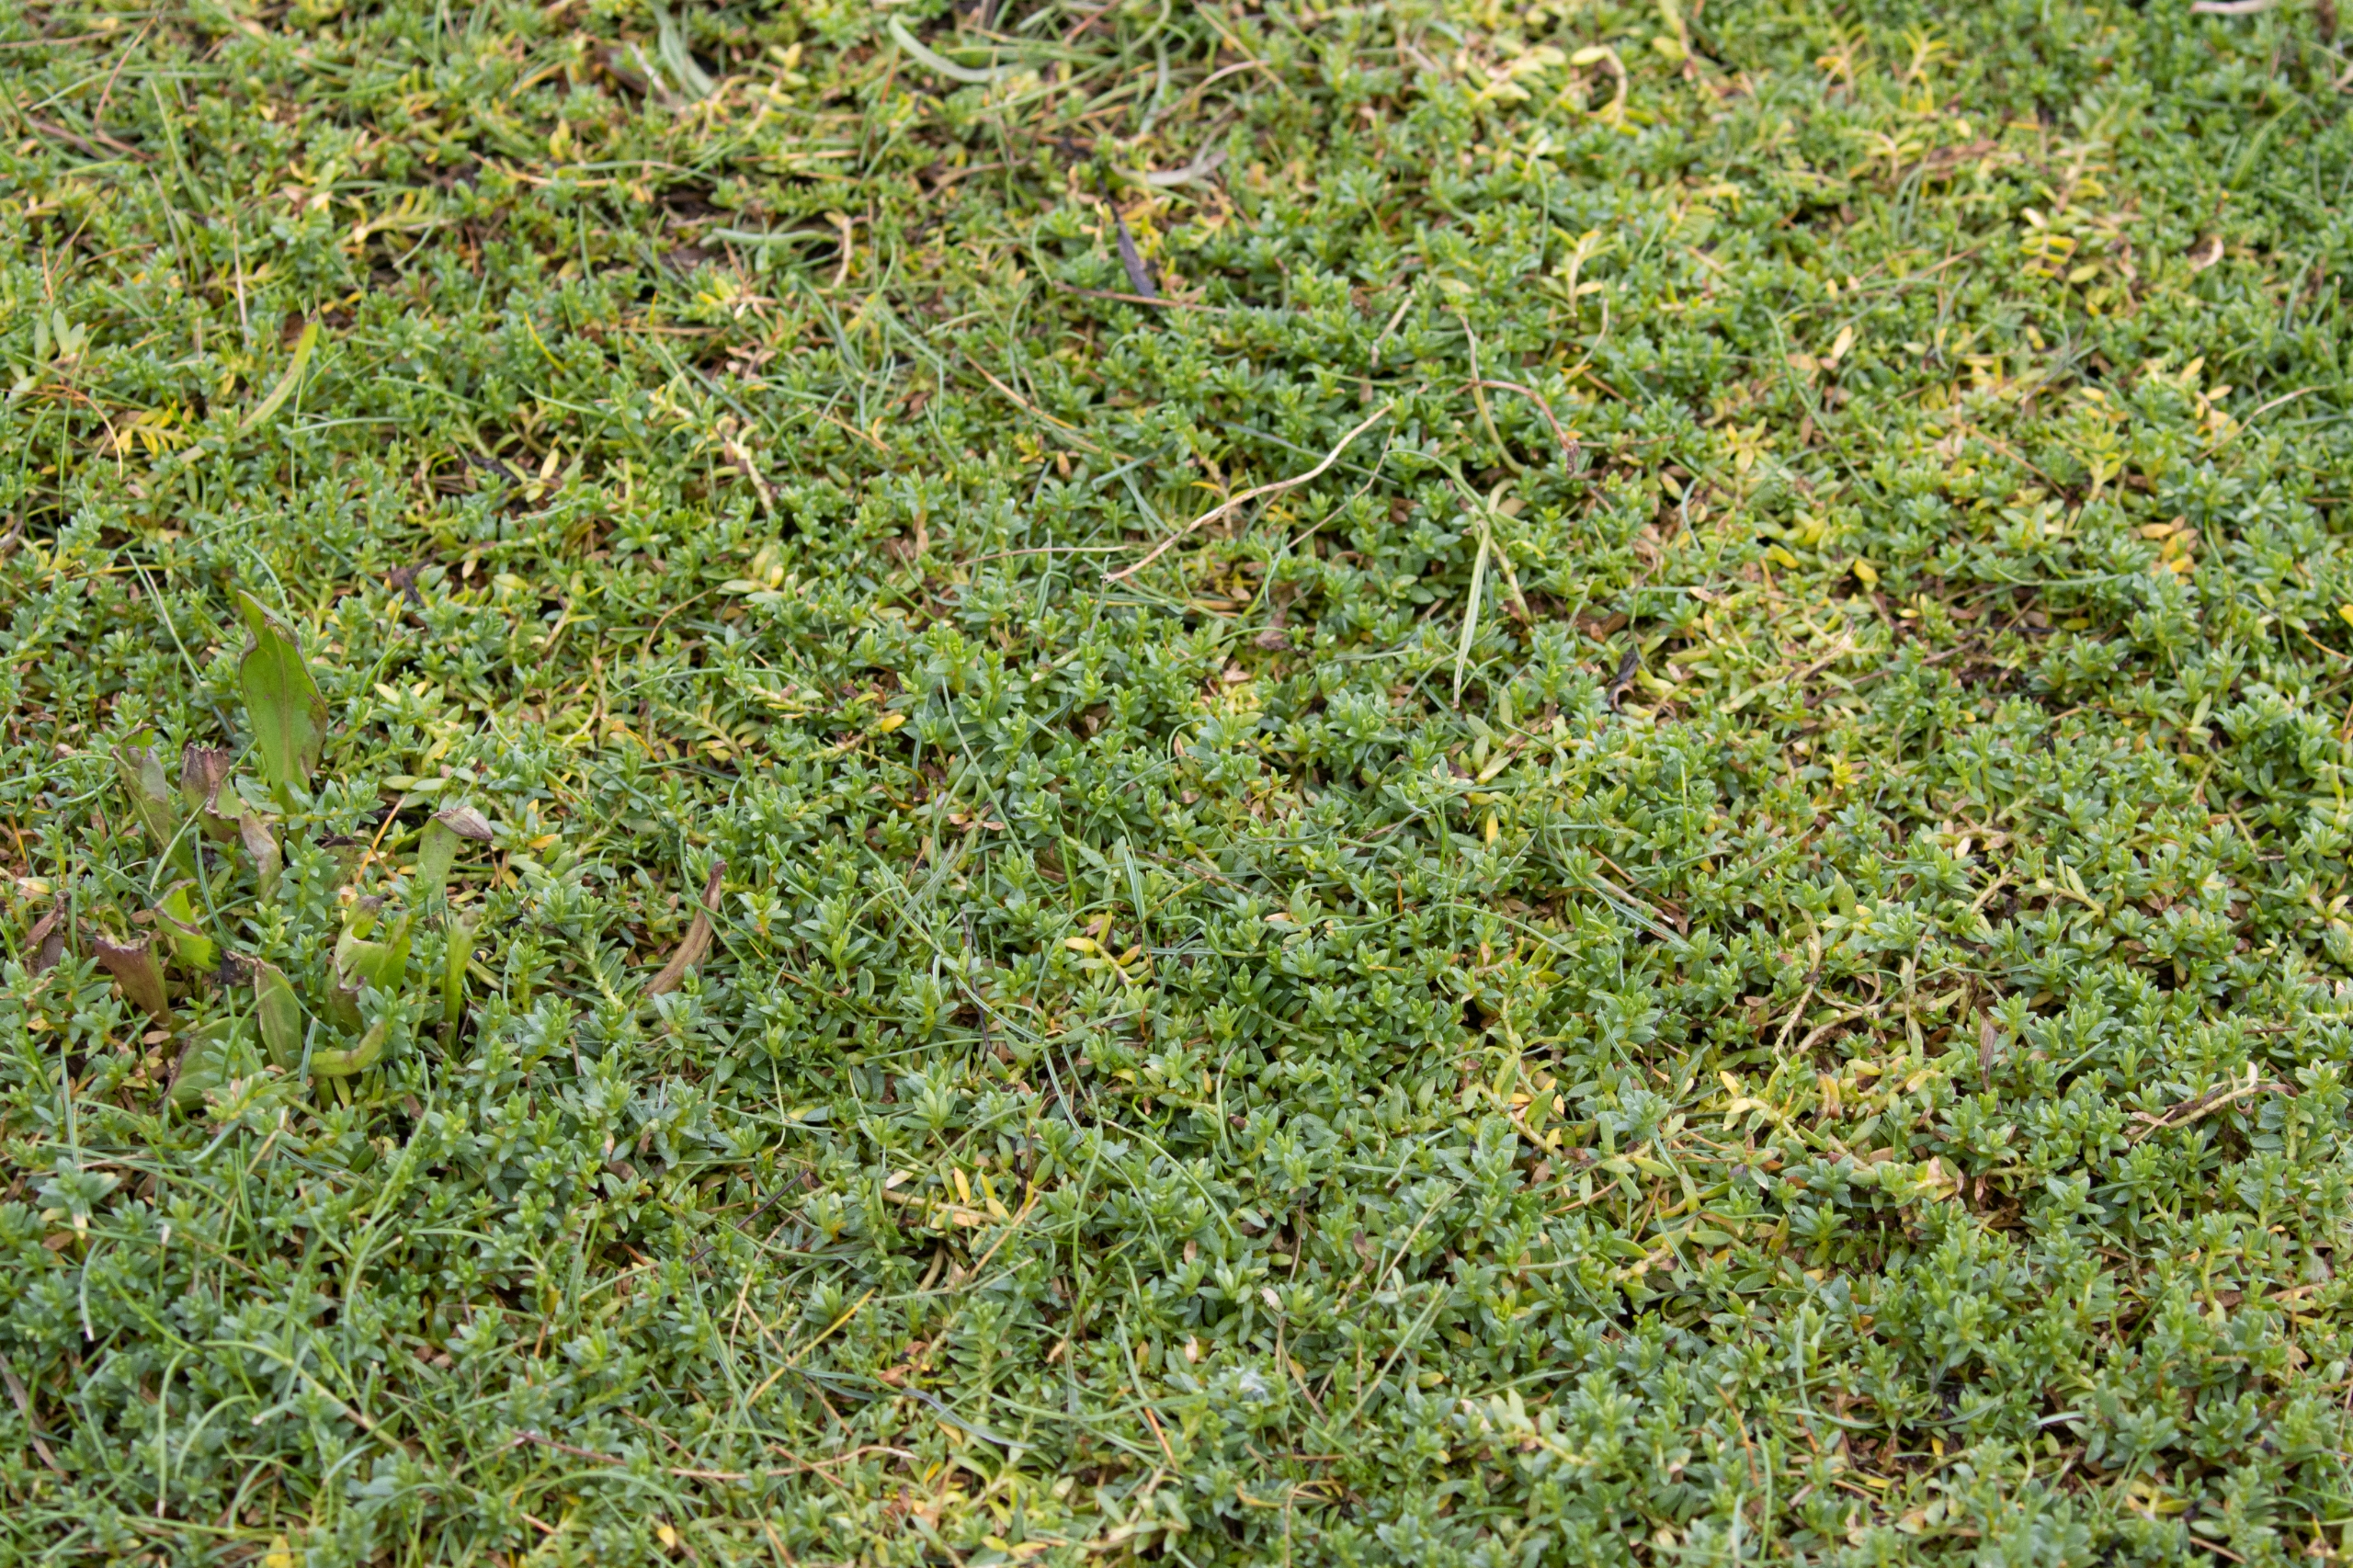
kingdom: Plantae
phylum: Tracheophyta
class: Magnoliopsida
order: Ericales
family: Primulaceae
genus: Lysimachia
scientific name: Lysimachia maritima
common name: Sandkryb
